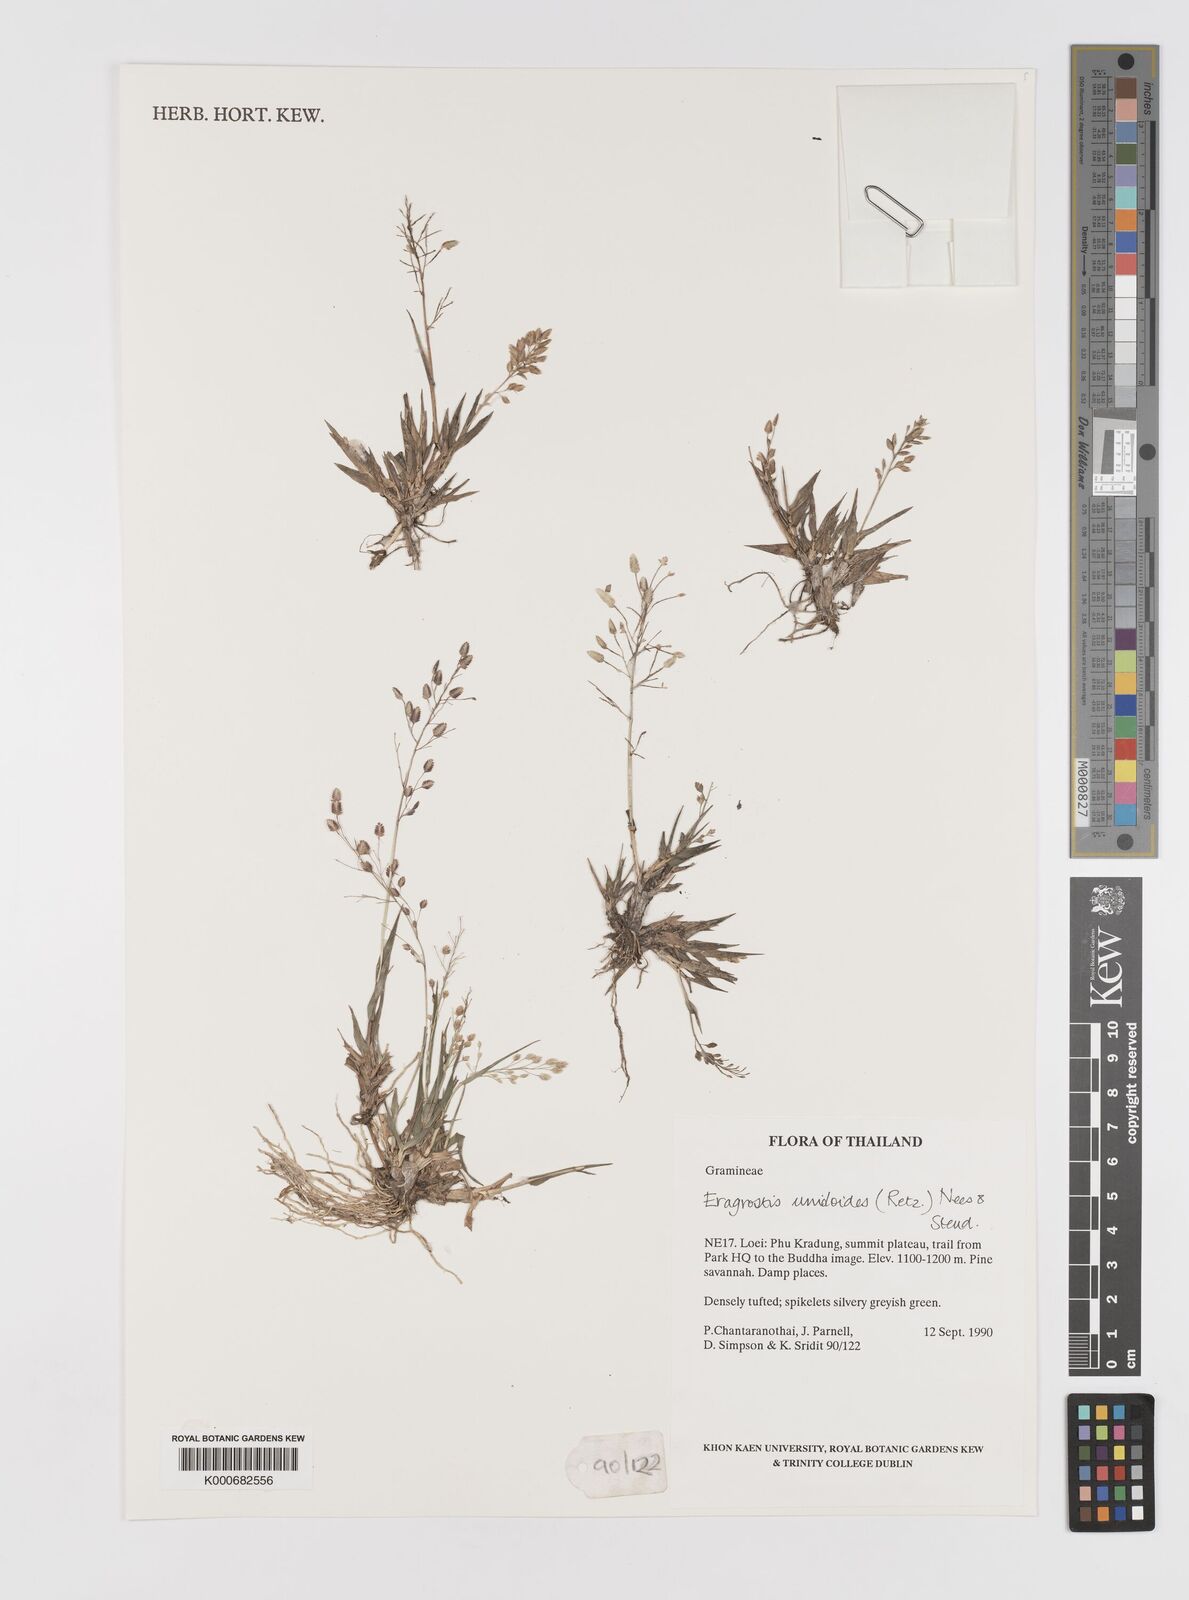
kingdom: Plantae
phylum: Tracheophyta
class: Liliopsida
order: Poales
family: Poaceae
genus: Eragrostis
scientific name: Eragrostis unioloides
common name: Chinese lovegrass
